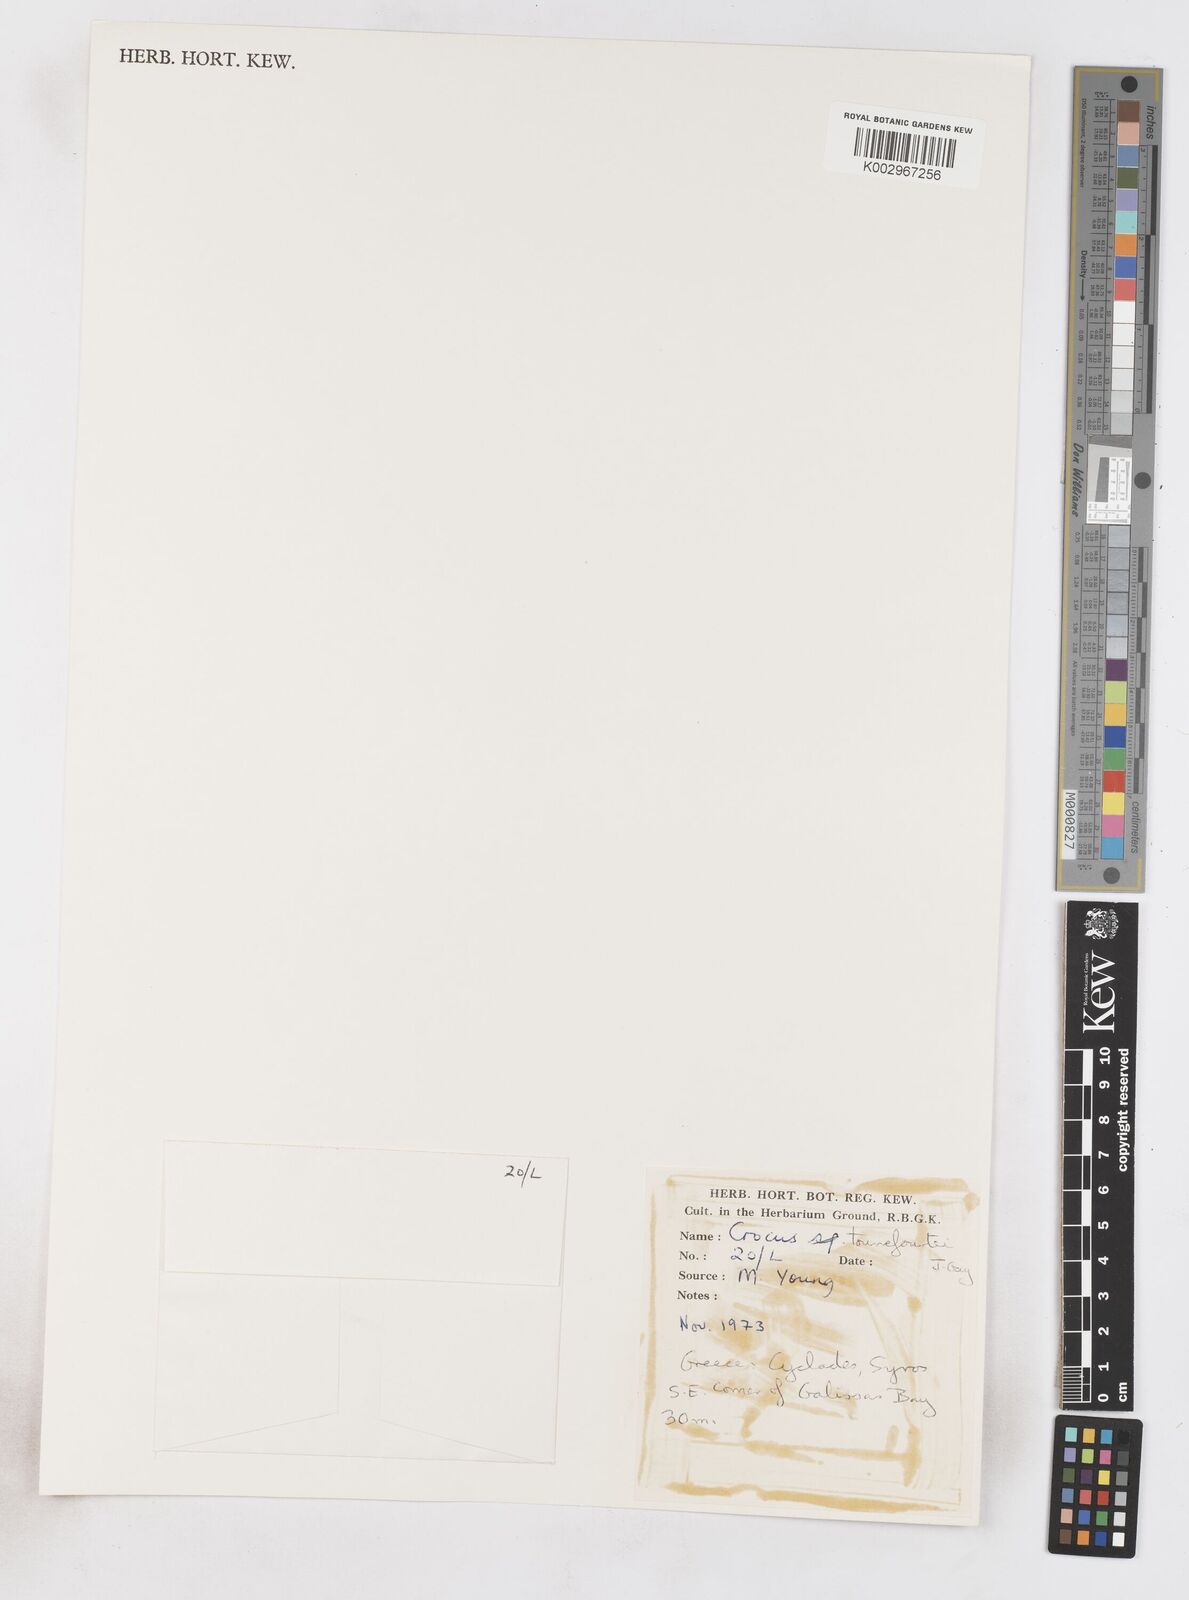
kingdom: Plantae
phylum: Tracheophyta
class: Liliopsida
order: Asparagales
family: Iridaceae
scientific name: Iridaceae
